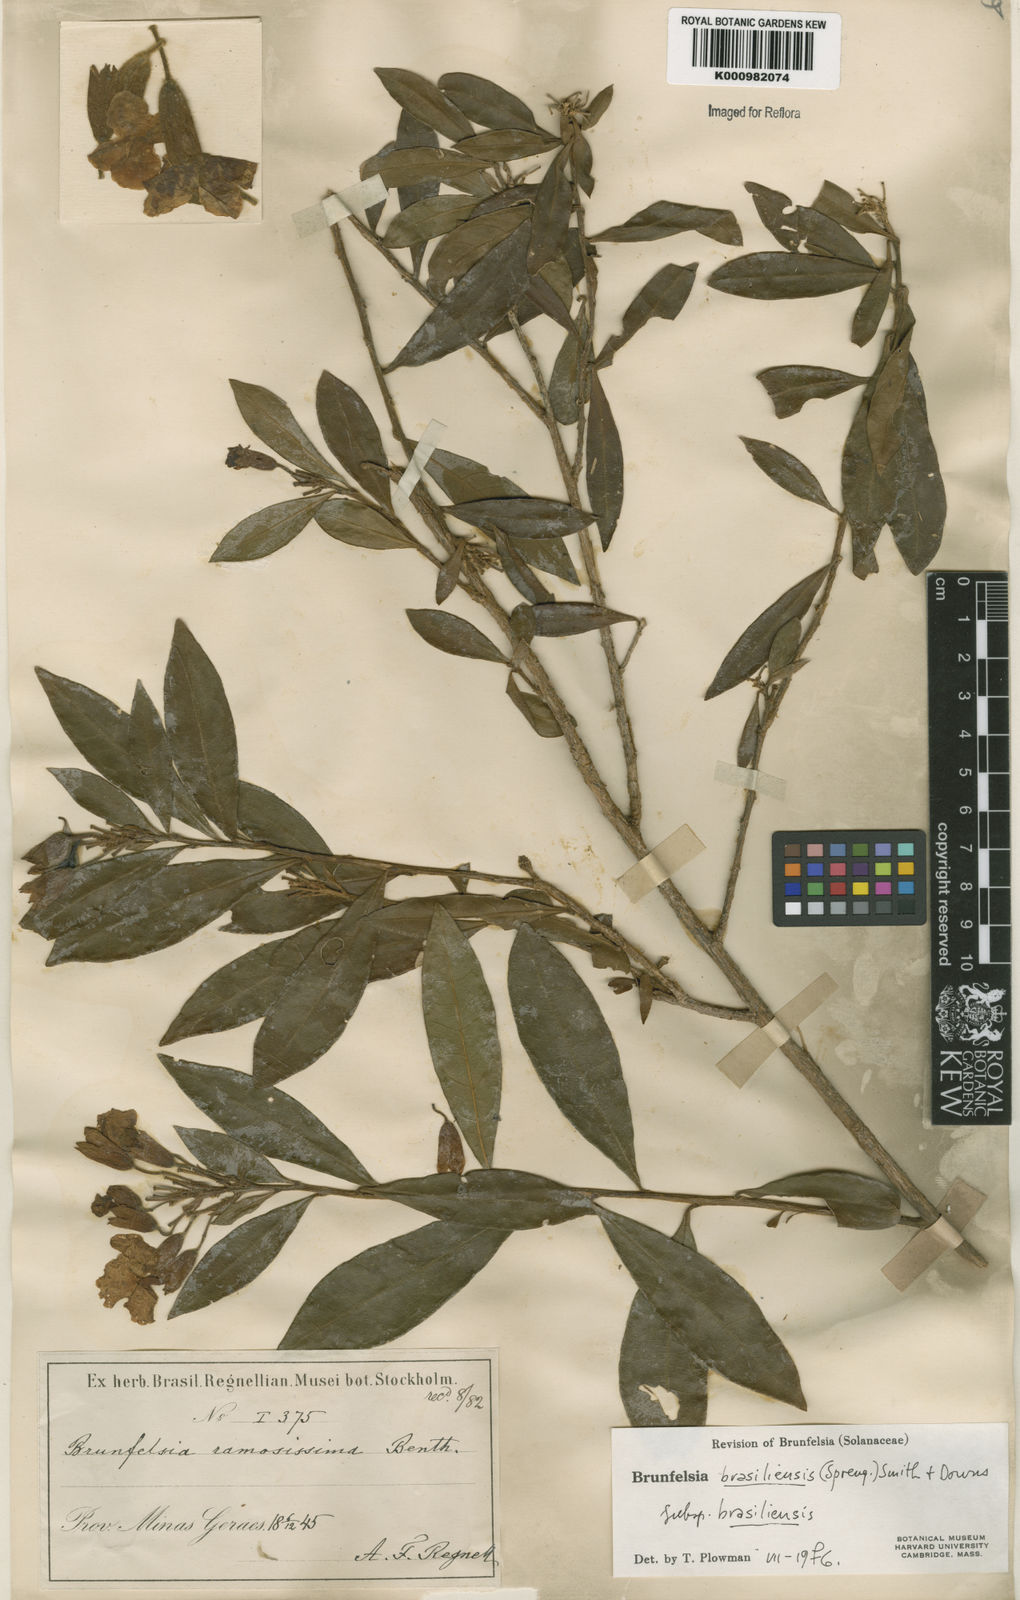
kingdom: Plantae
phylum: Tracheophyta
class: Magnoliopsida
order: Solanales
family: Solanaceae
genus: Brunfelsia
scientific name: Brunfelsia brasiliensis
